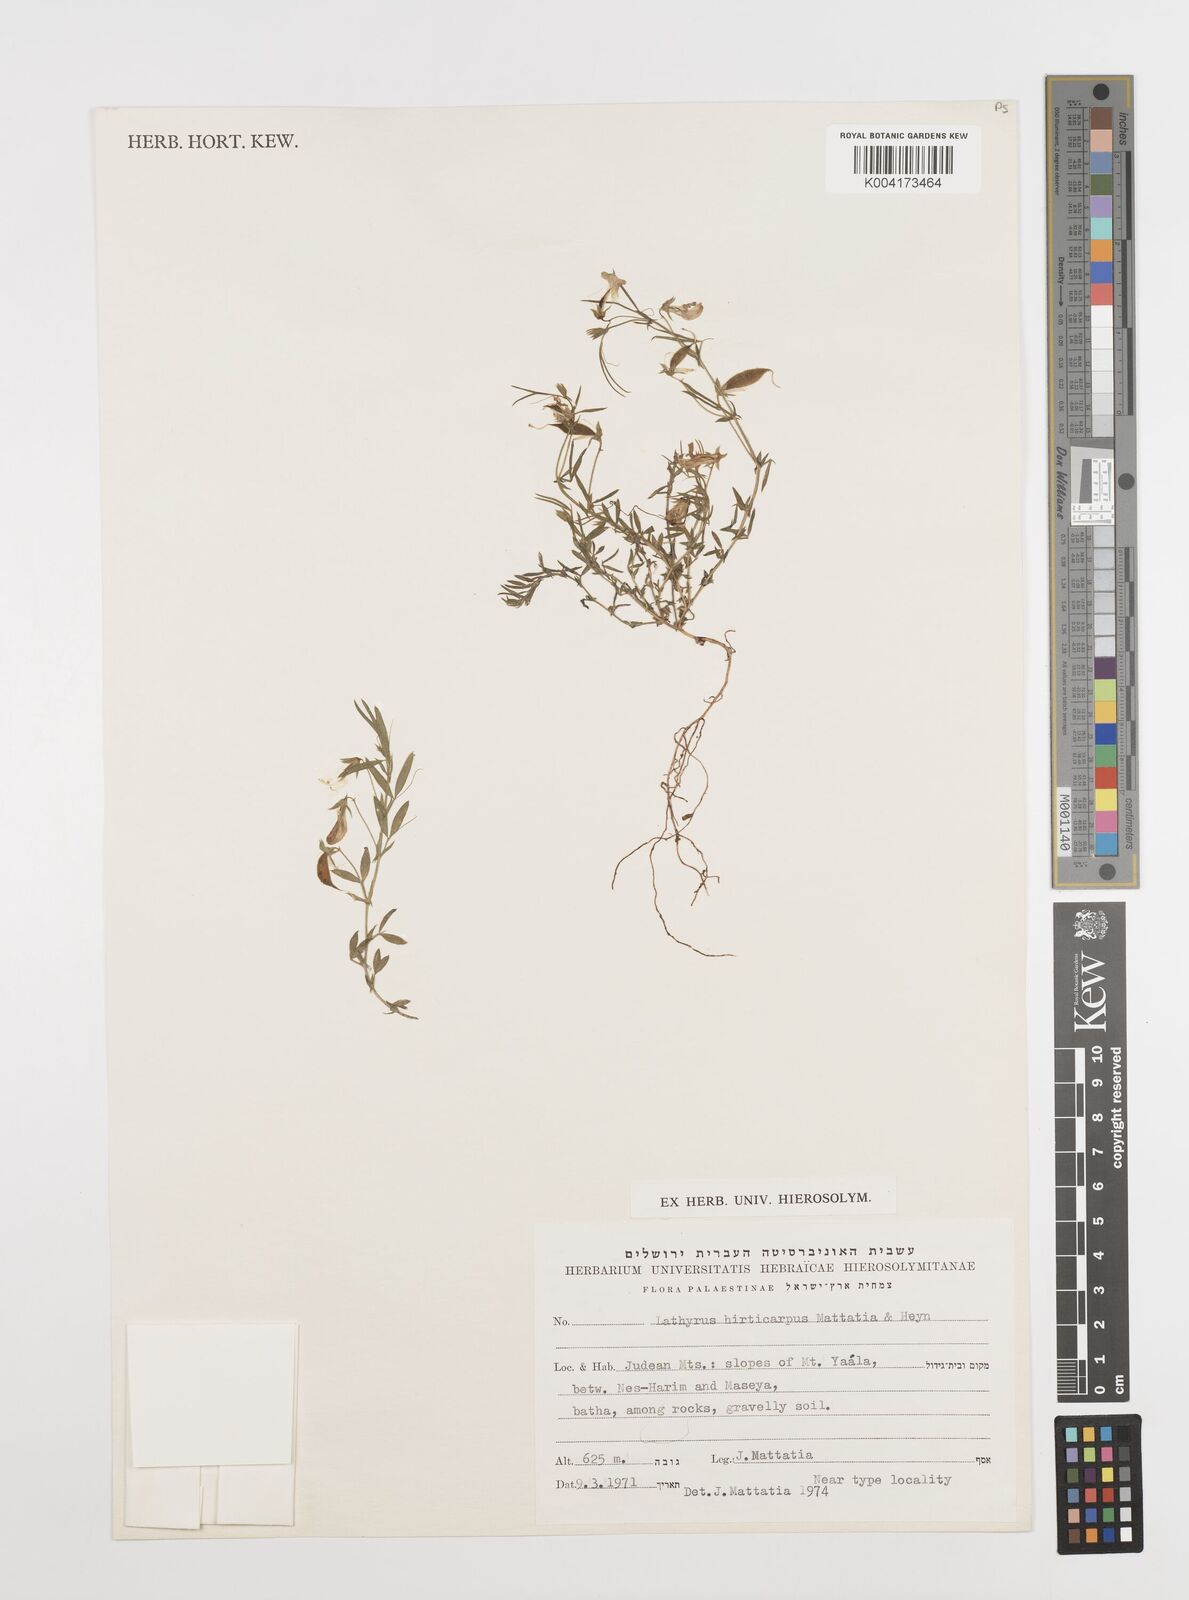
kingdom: Plantae
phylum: Tracheophyta
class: Magnoliopsida
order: Fabales
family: Fabaceae
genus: Lathyrus
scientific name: Lathyrus hirticarpus
